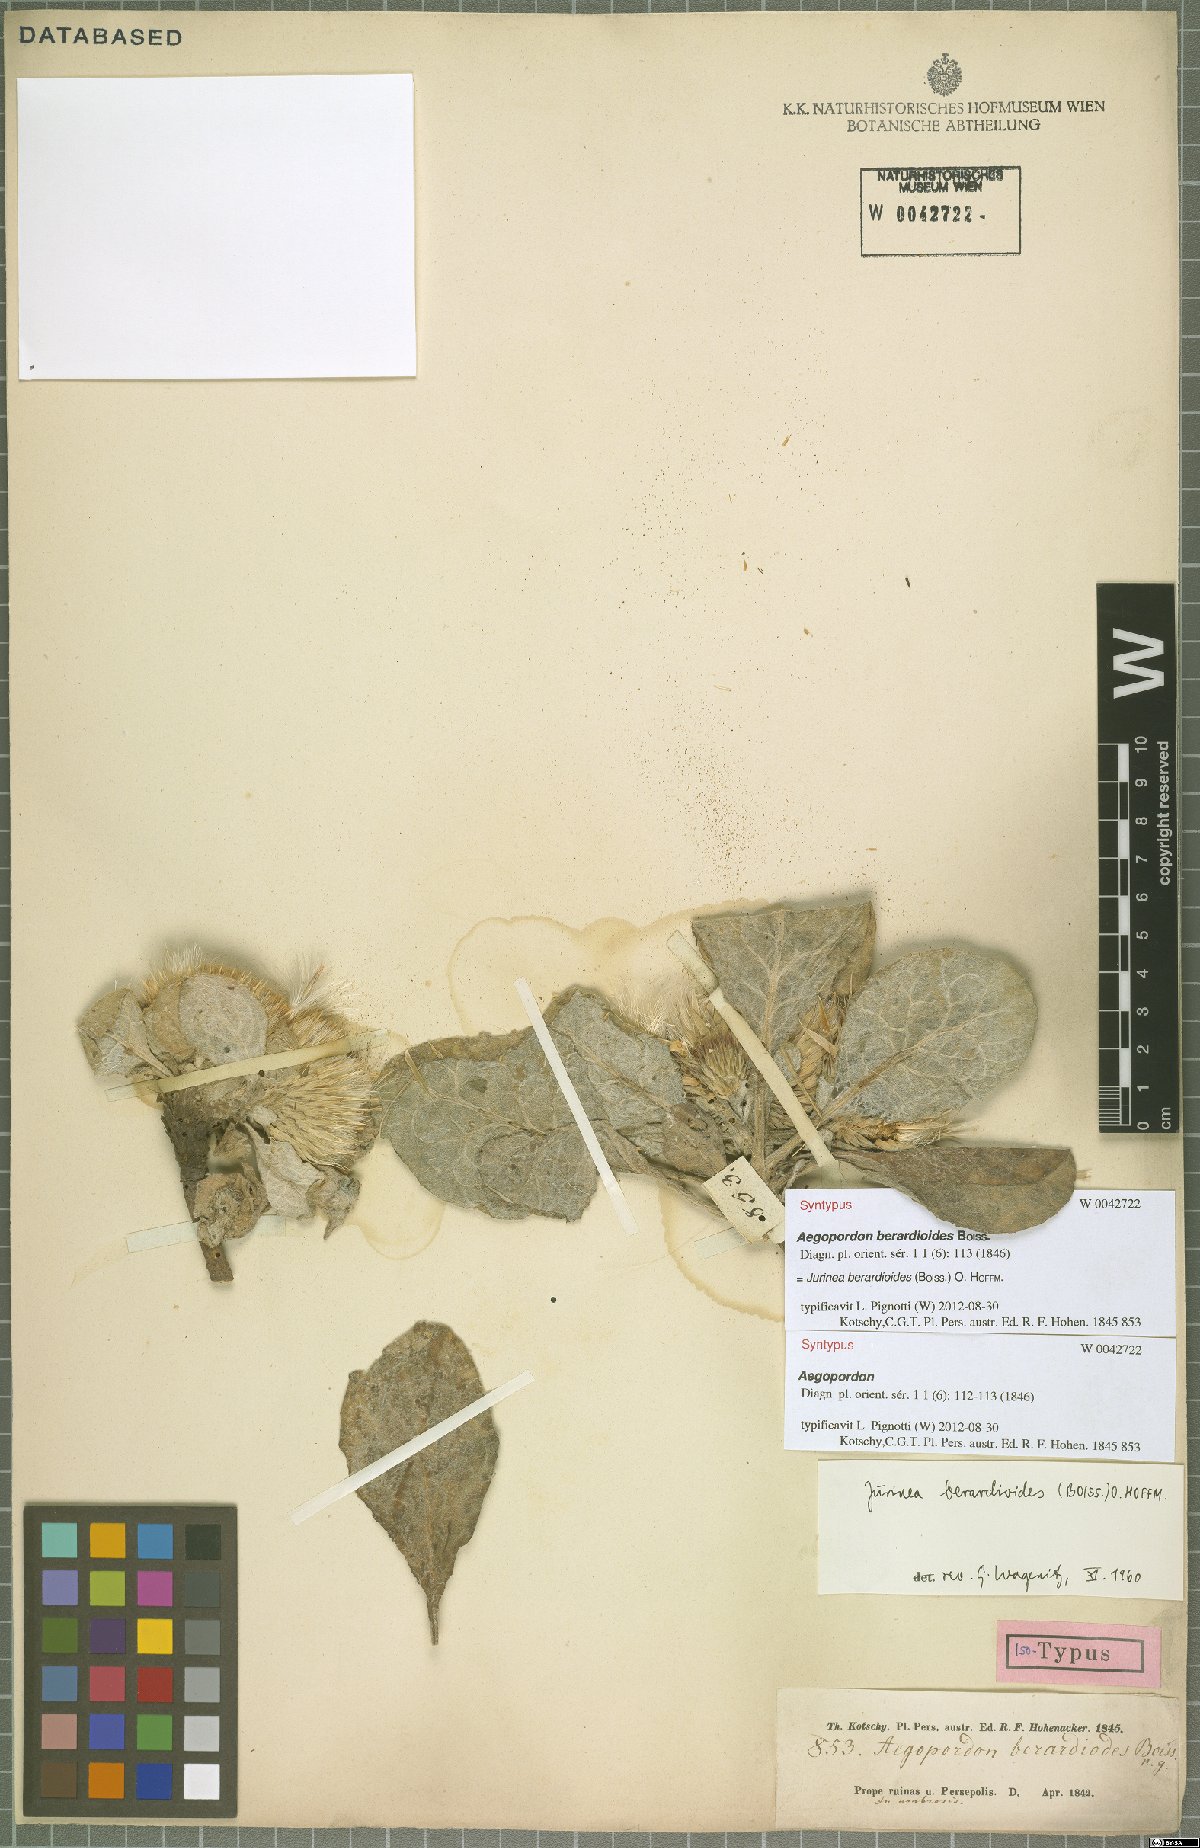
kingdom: Plantae
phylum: Tracheophyta
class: Magnoliopsida
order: Asterales
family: Asteraceae
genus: Jurinea
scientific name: Jurinea berardioides
